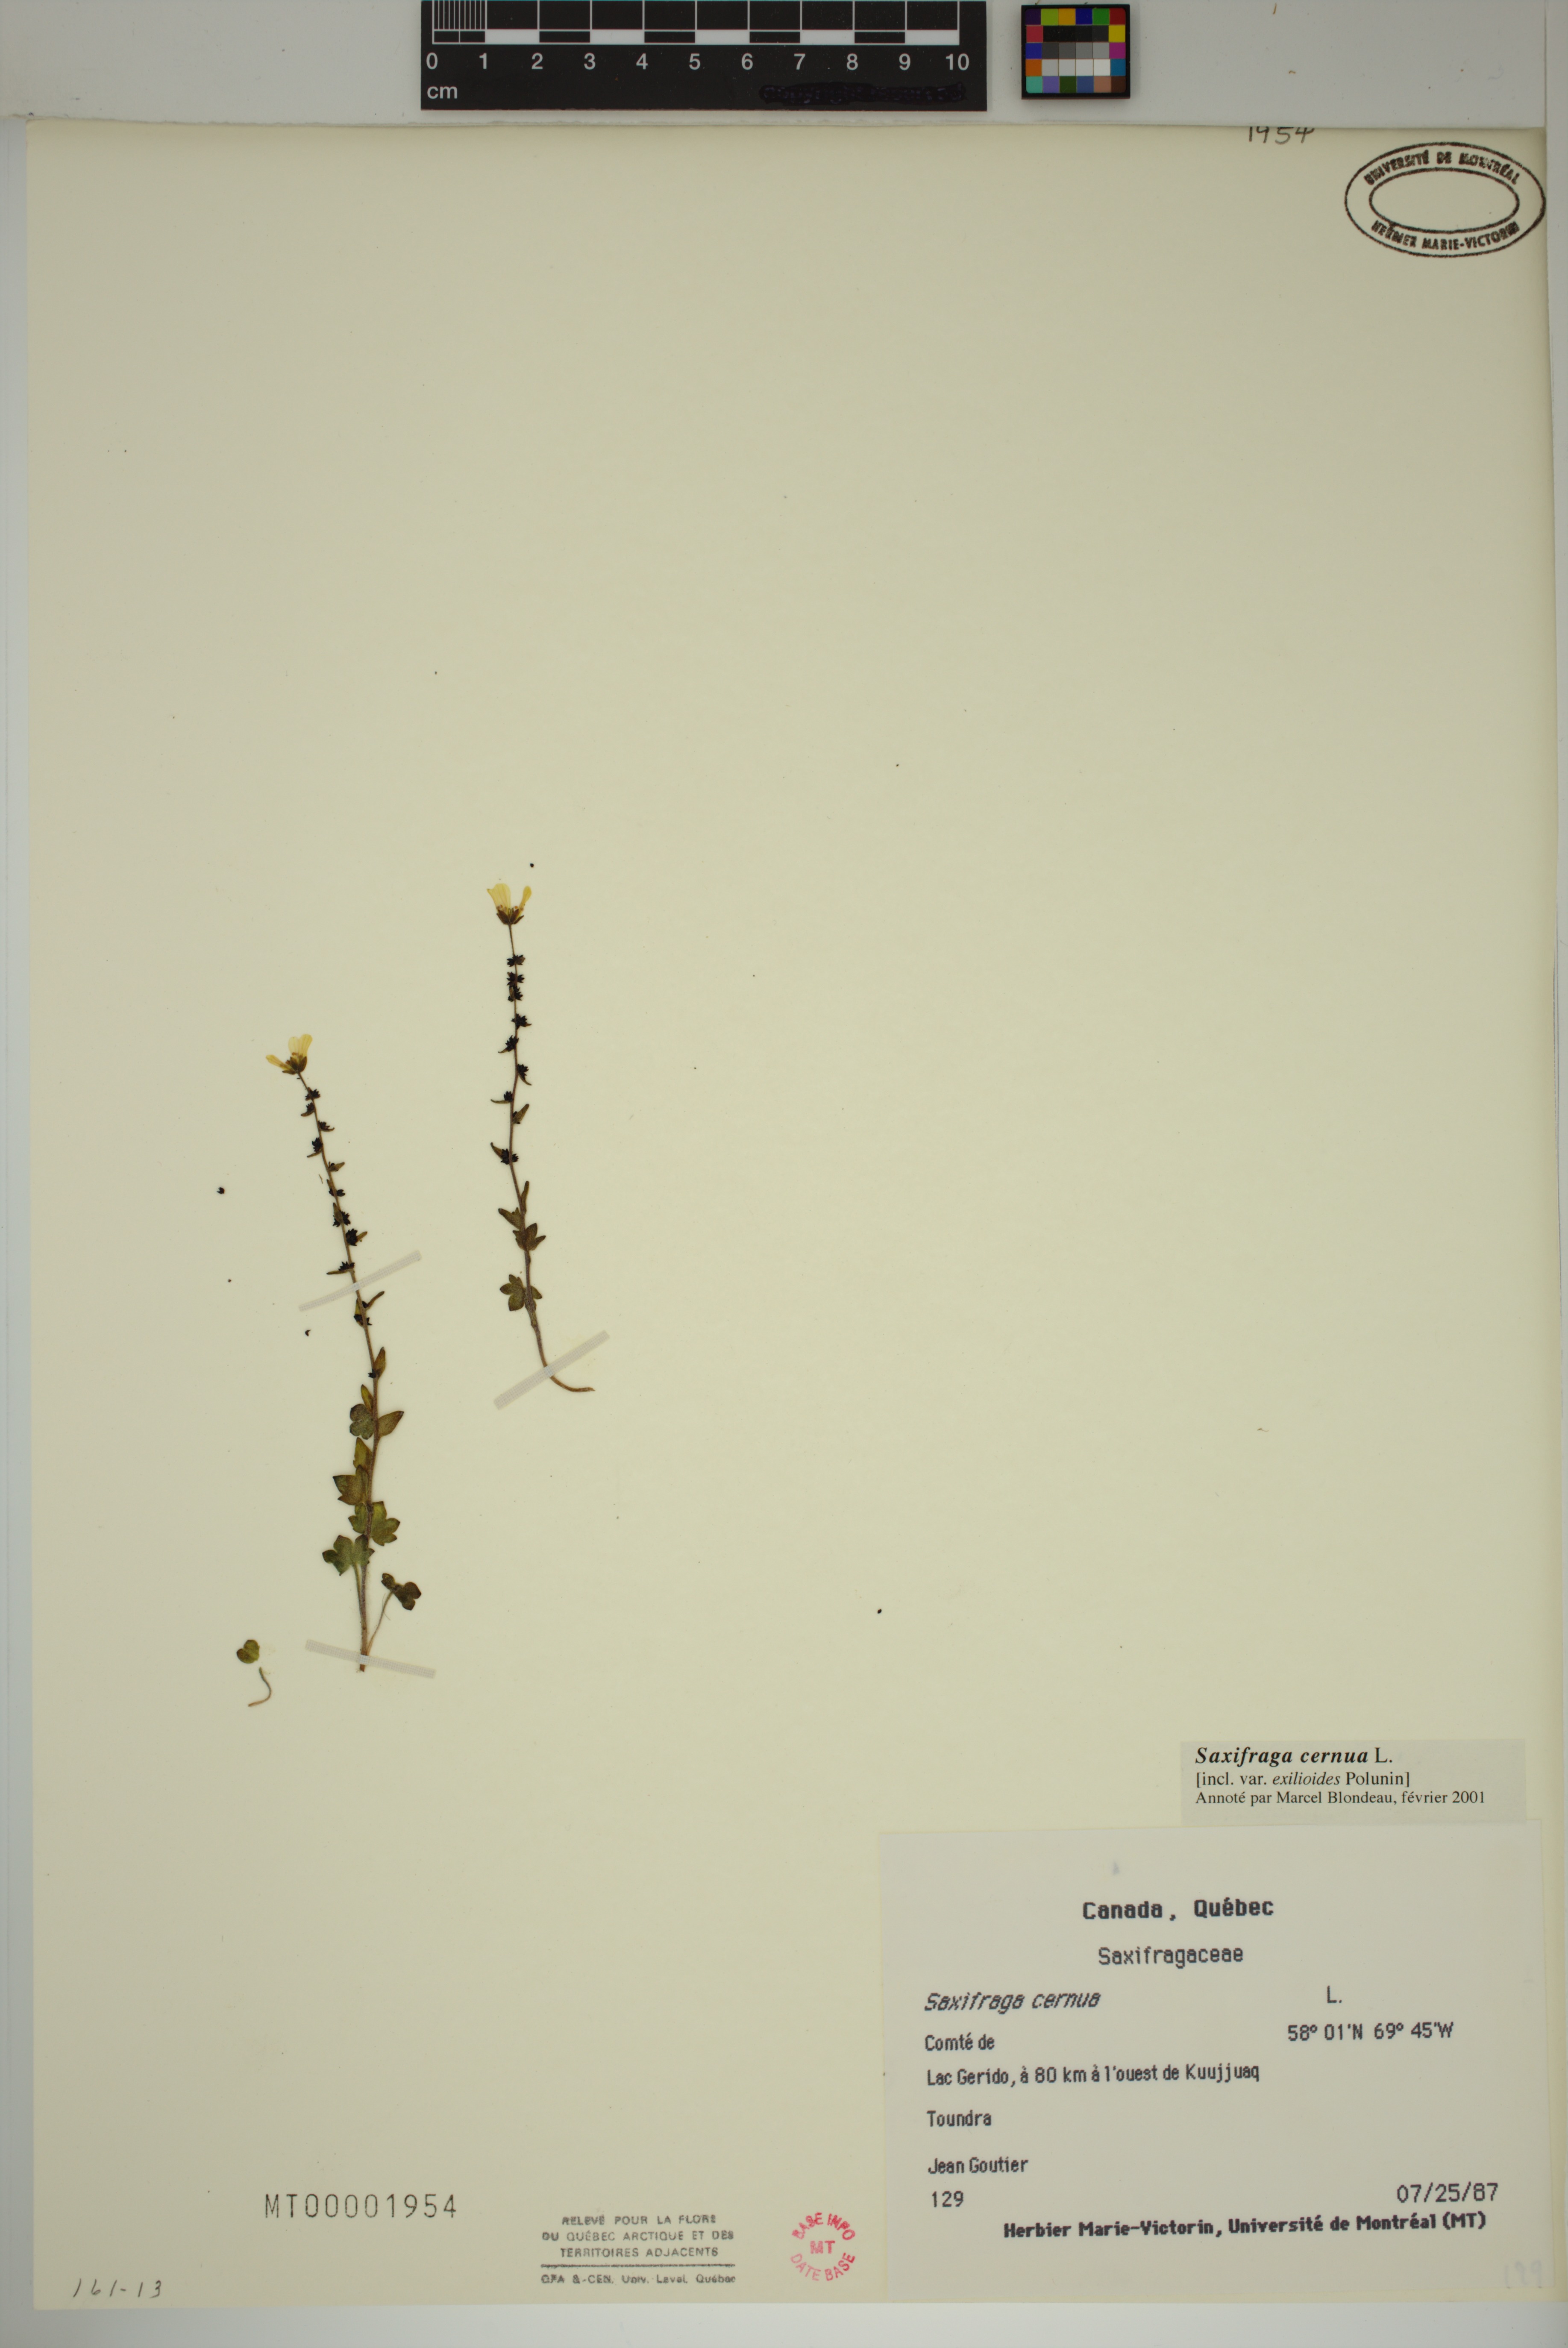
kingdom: Plantae
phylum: Tracheophyta
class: Magnoliopsida
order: Saxifragales
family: Saxifragaceae
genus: Saxifraga
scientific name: Saxifraga cernua
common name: Drooping saxifrage
